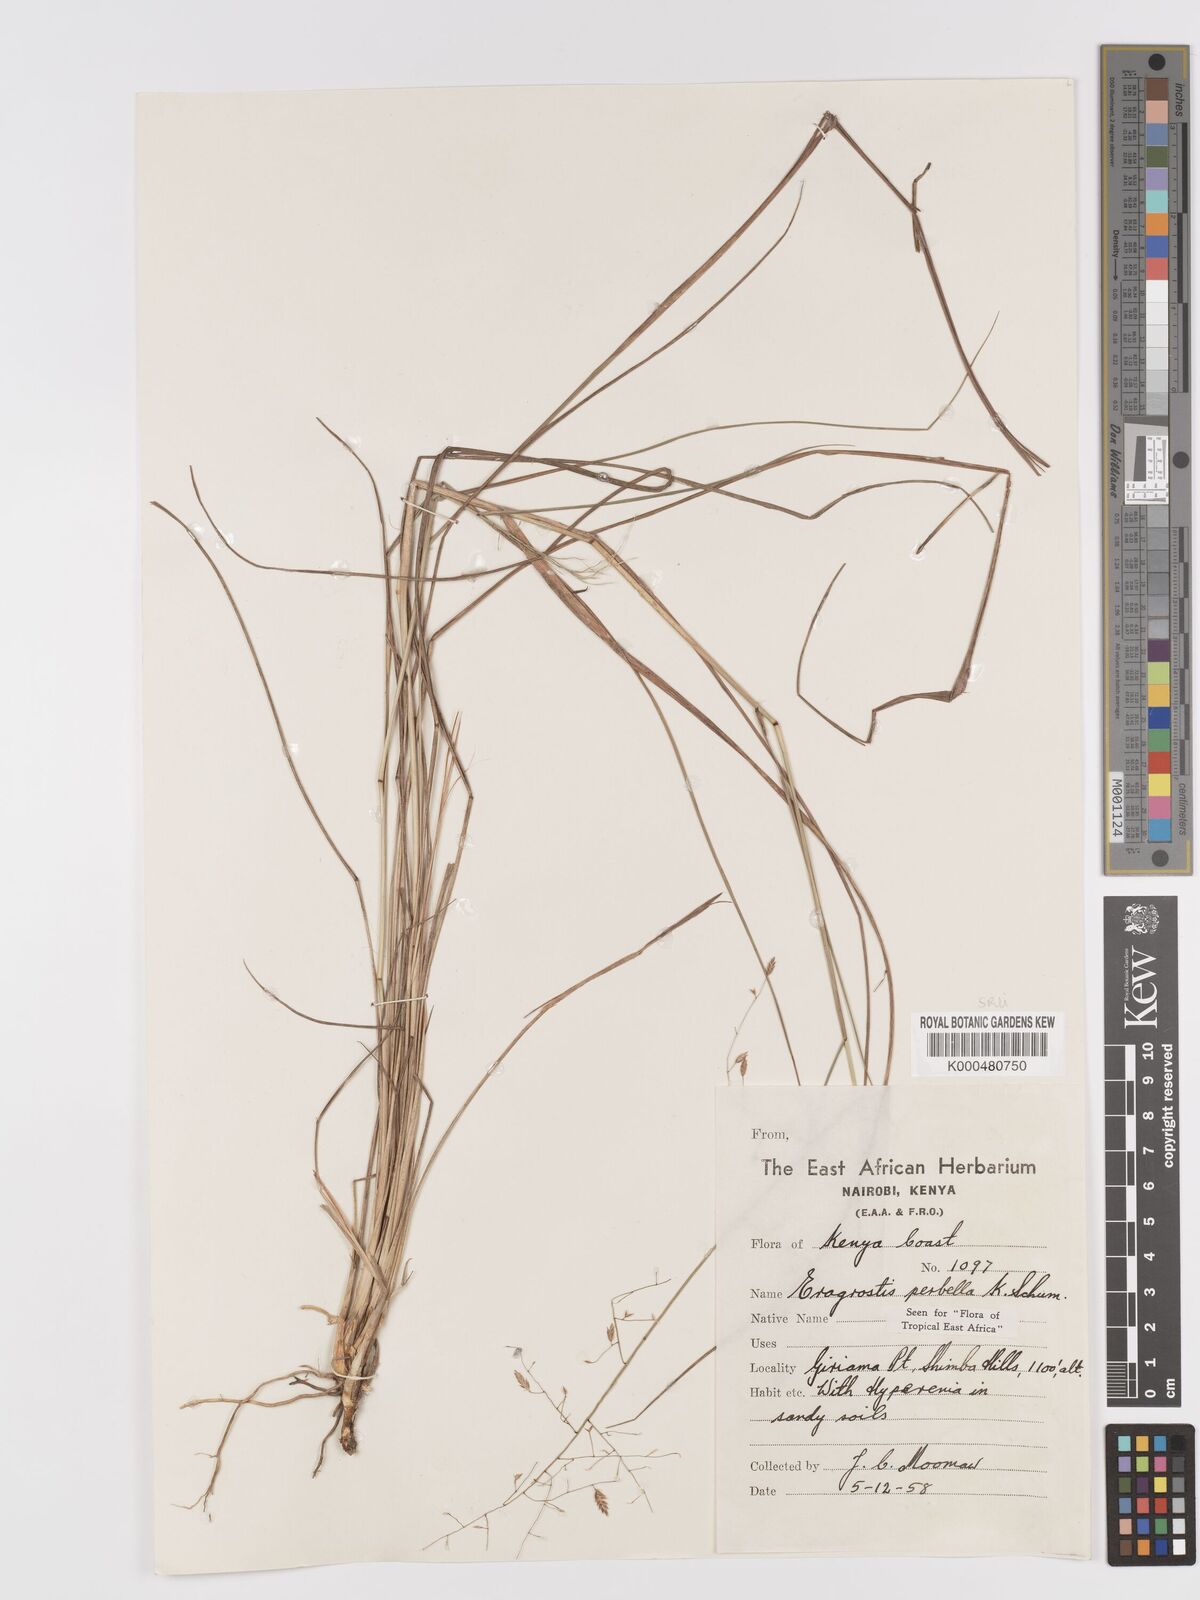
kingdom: Plantae
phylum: Tracheophyta
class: Liliopsida
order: Poales
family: Poaceae
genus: Eragrostis
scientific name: Eragrostis perbella
